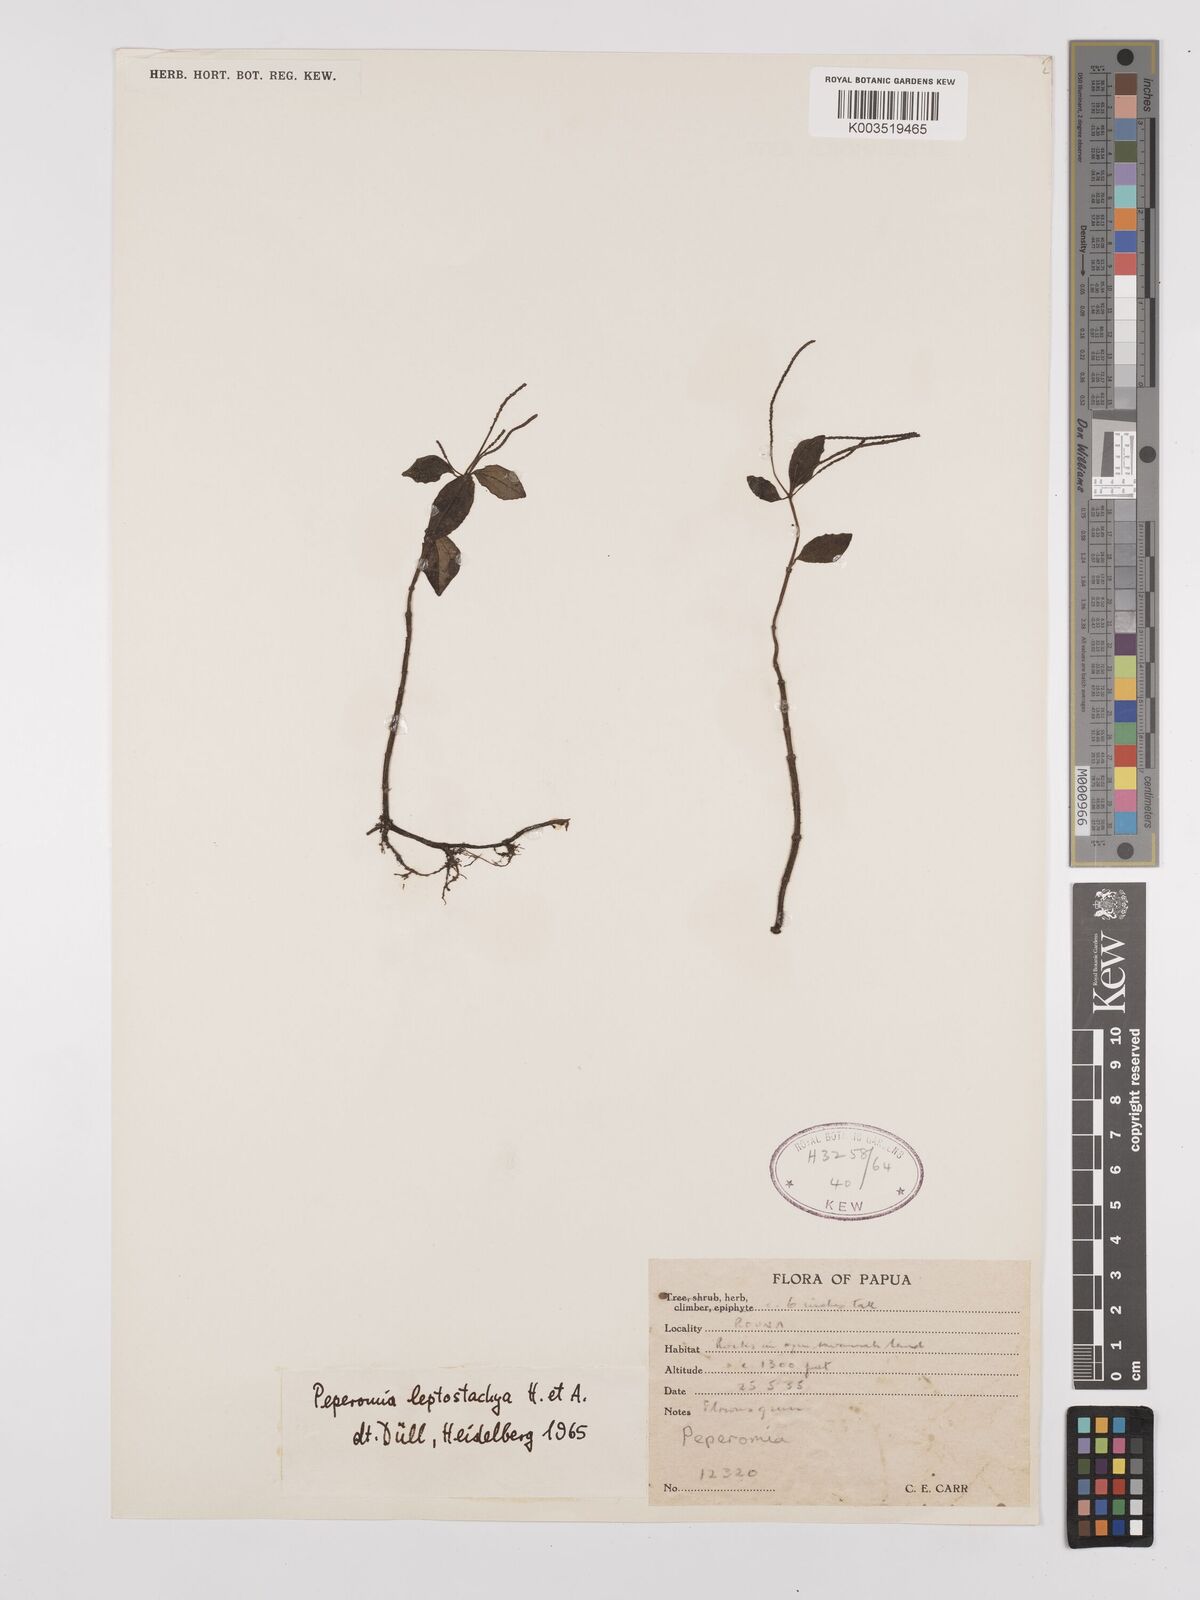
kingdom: Plantae
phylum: Tracheophyta
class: Magnoliopsida
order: Piperales
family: Piperaceae
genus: Peperomia
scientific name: Peperomia leptostachya
